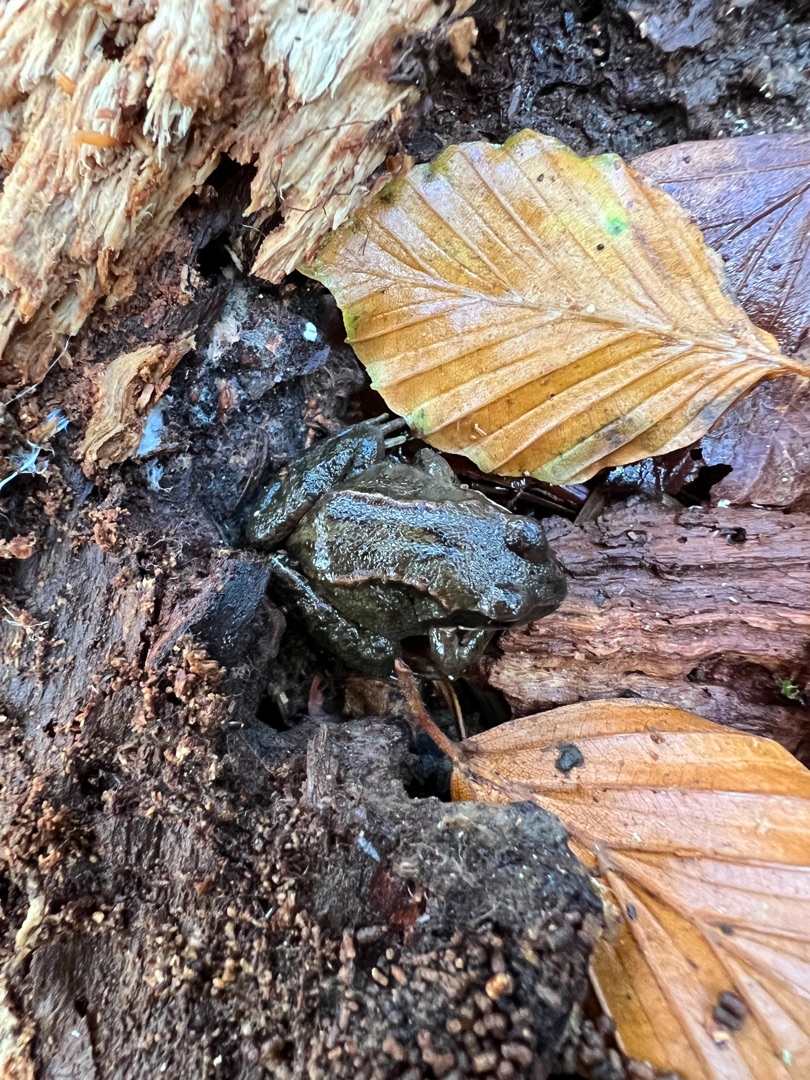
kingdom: Animalia
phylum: Chordata
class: Amphibia
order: Anura
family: Ranidae
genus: Rana
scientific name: Rana temporaria
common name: Butsnudet frø
